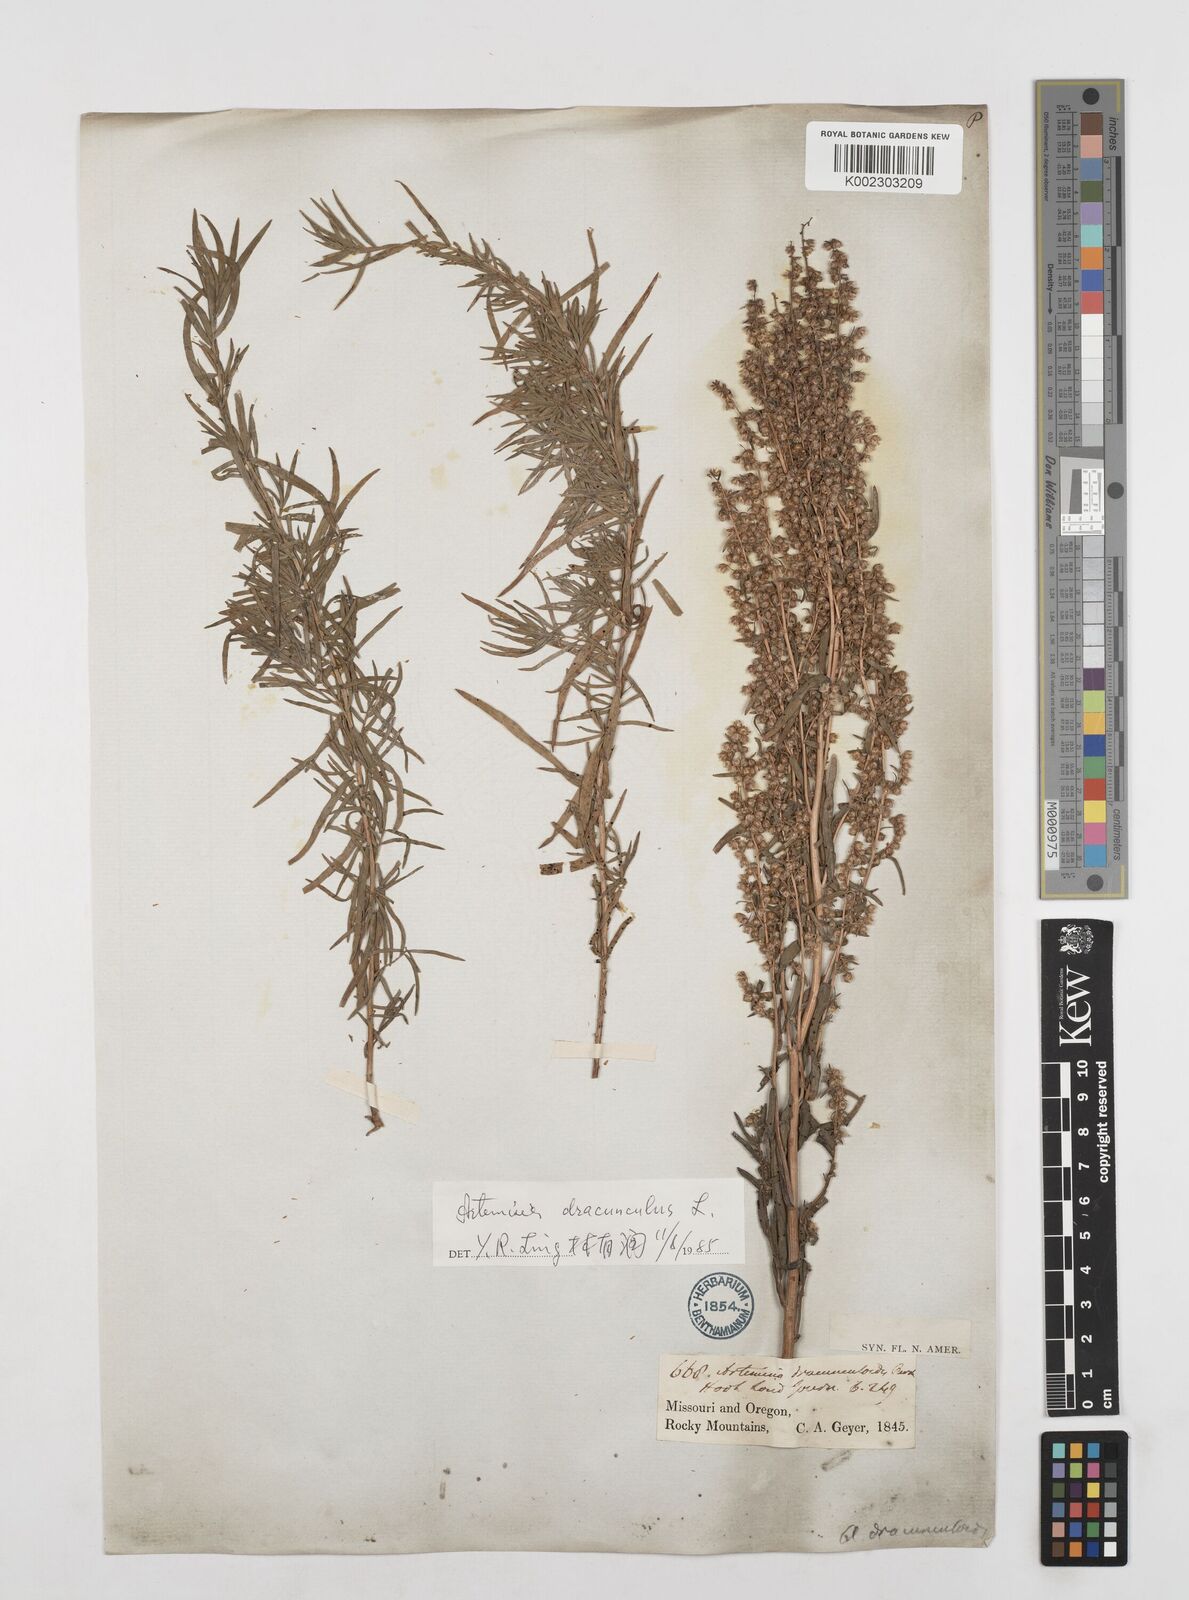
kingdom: Plantae
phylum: Tracheophyta
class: Magnoliopsida
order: Asterales
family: Asteraceae
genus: Artemisia
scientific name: Artemisia dracunculus
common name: Tarragon
